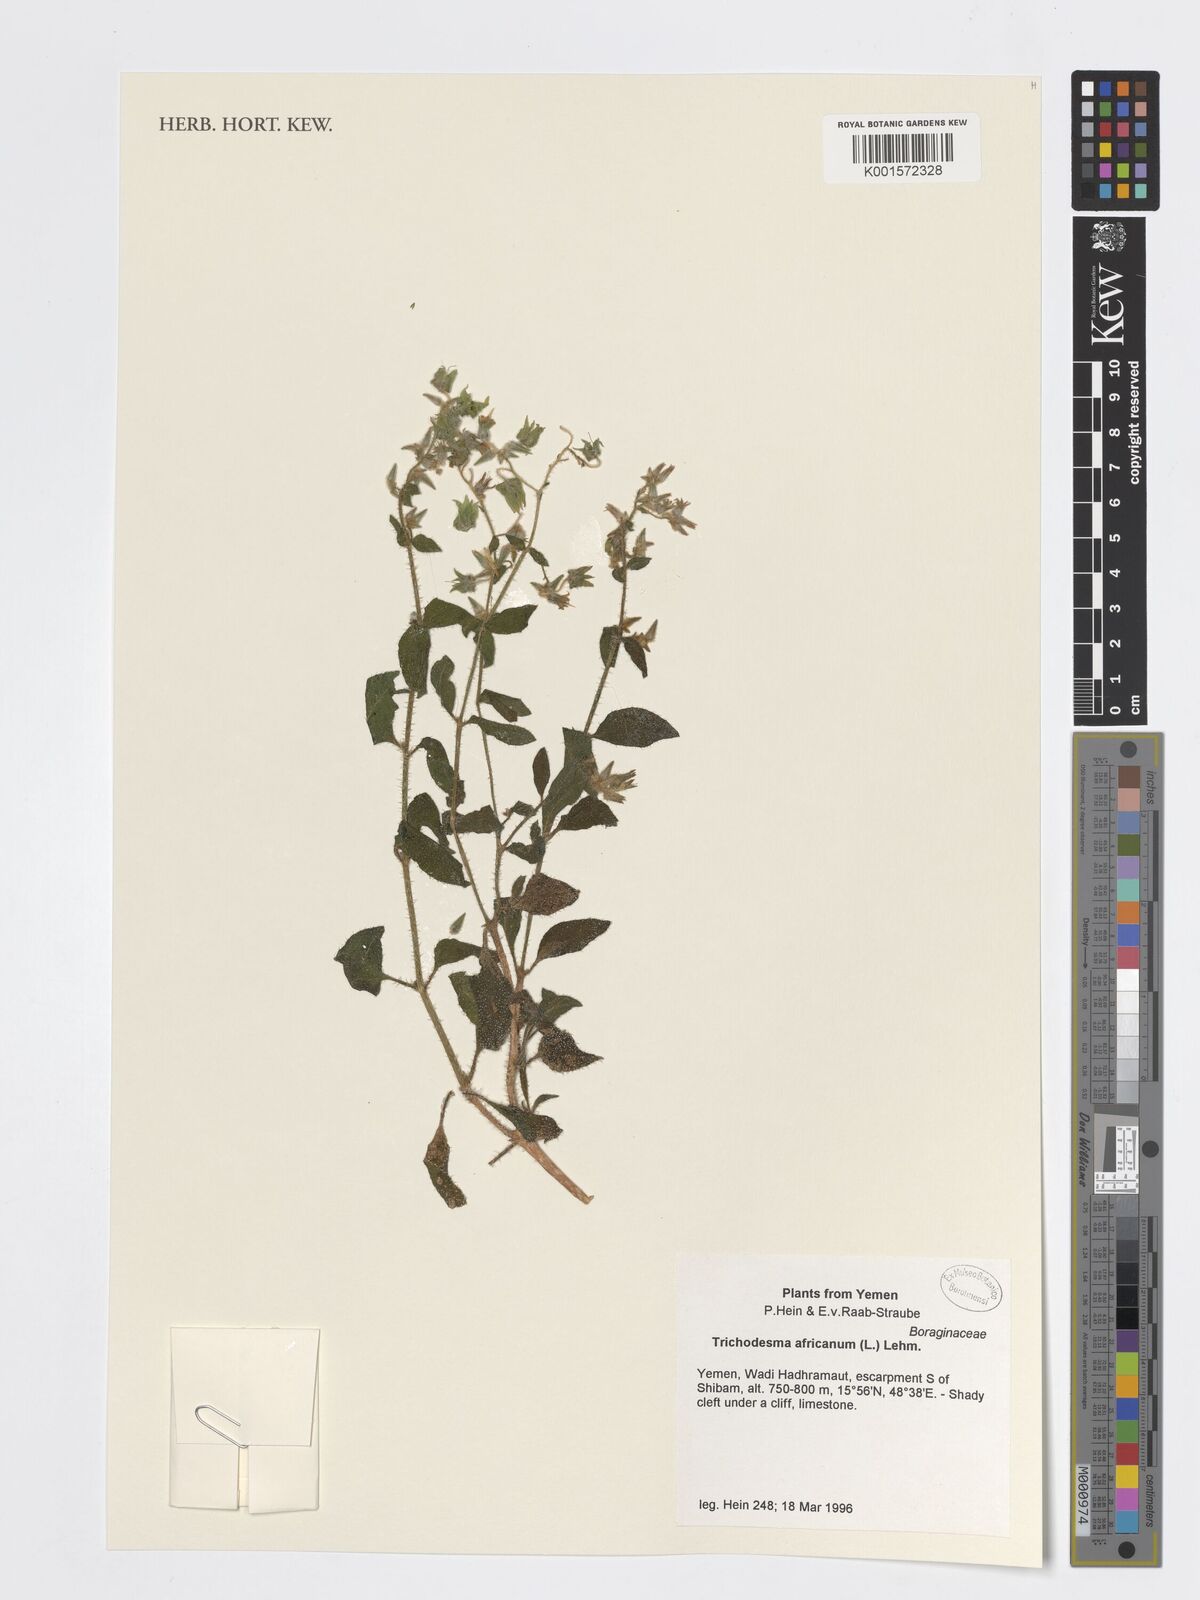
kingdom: Plantae
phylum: Tracheophyta
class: Magnoliopsida
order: Boraginales
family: Boraginaceae
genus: Trichodesma
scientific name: Trichodesma africanum
